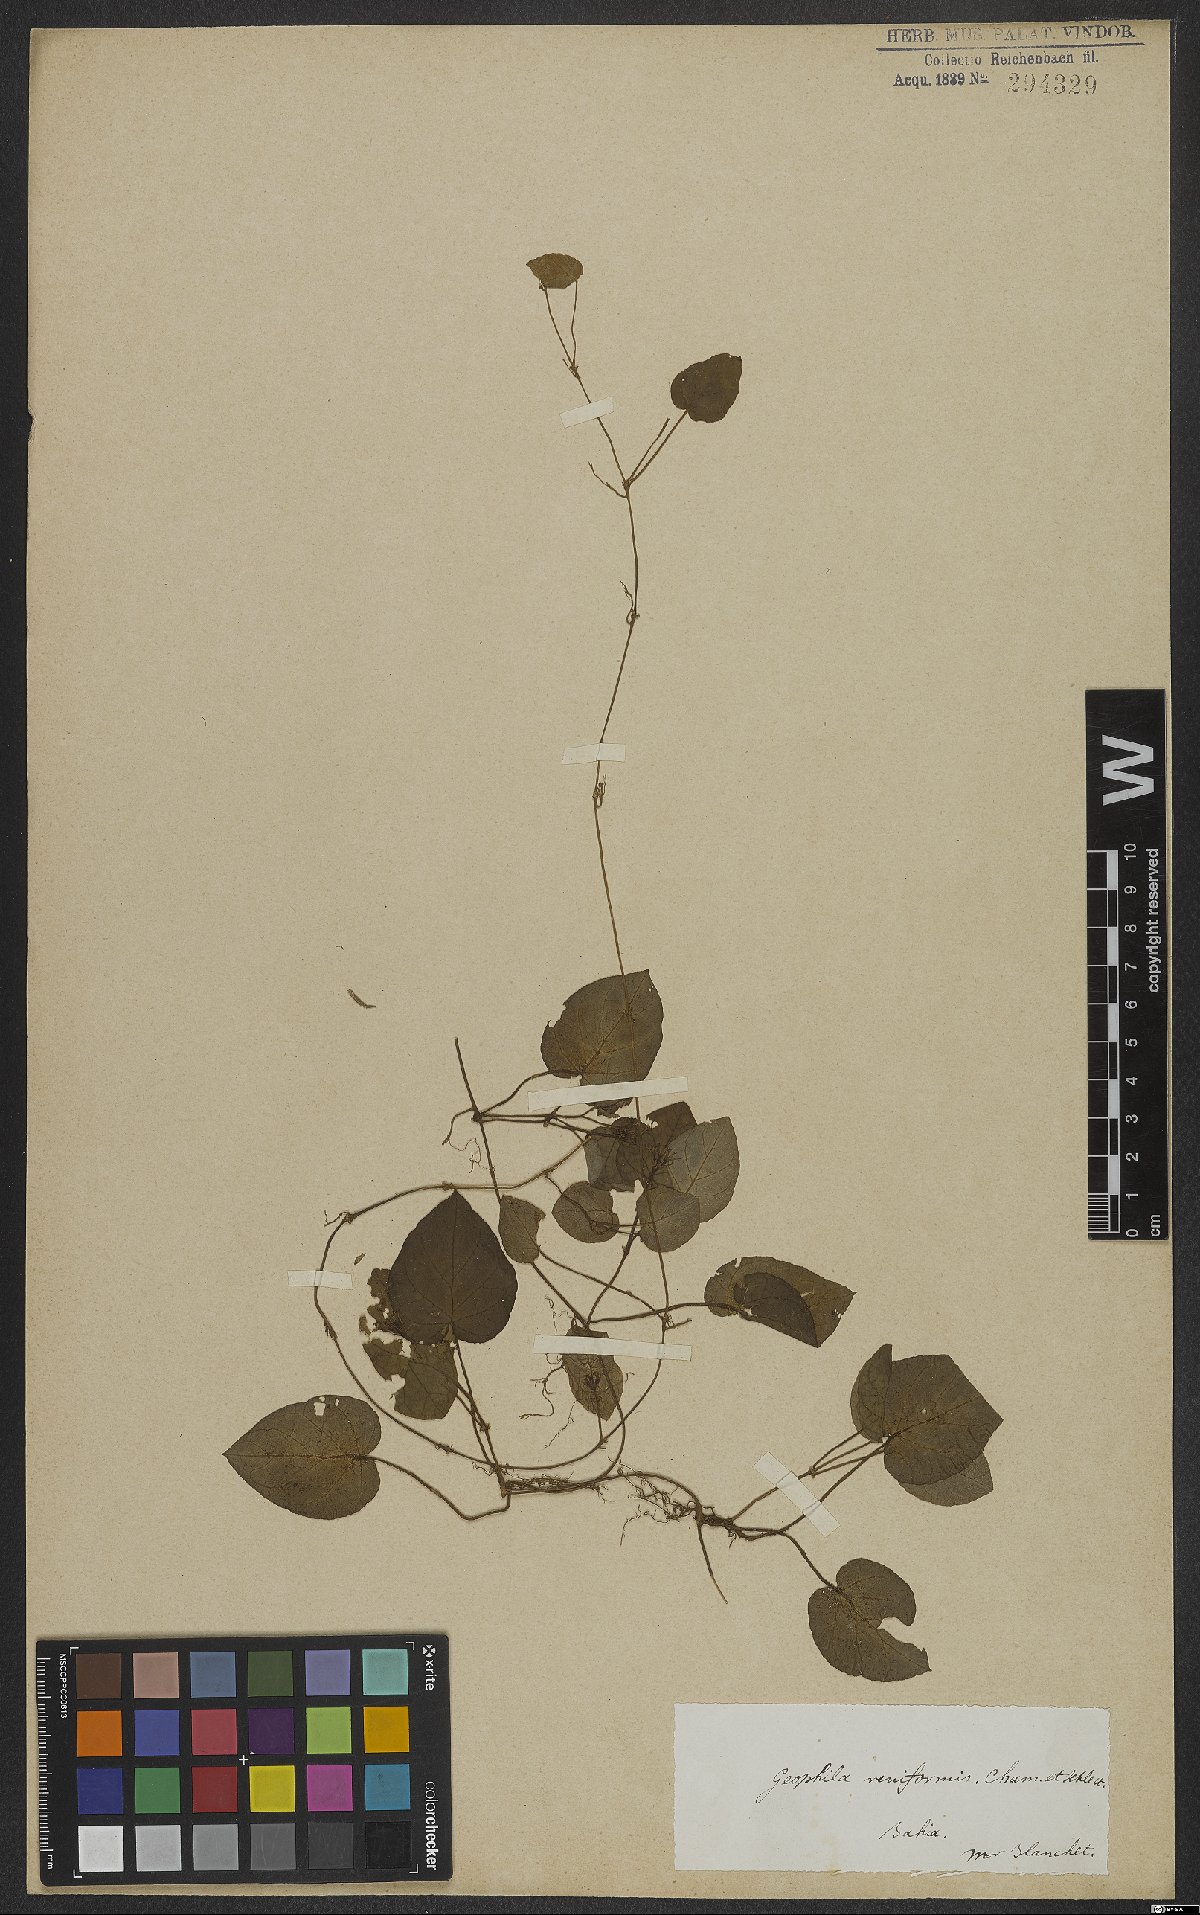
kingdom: Plantae
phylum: Tracheophyta
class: Magnoliopsida
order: Gentianales
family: Rubiaceae
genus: Geophila
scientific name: Geophila repens
